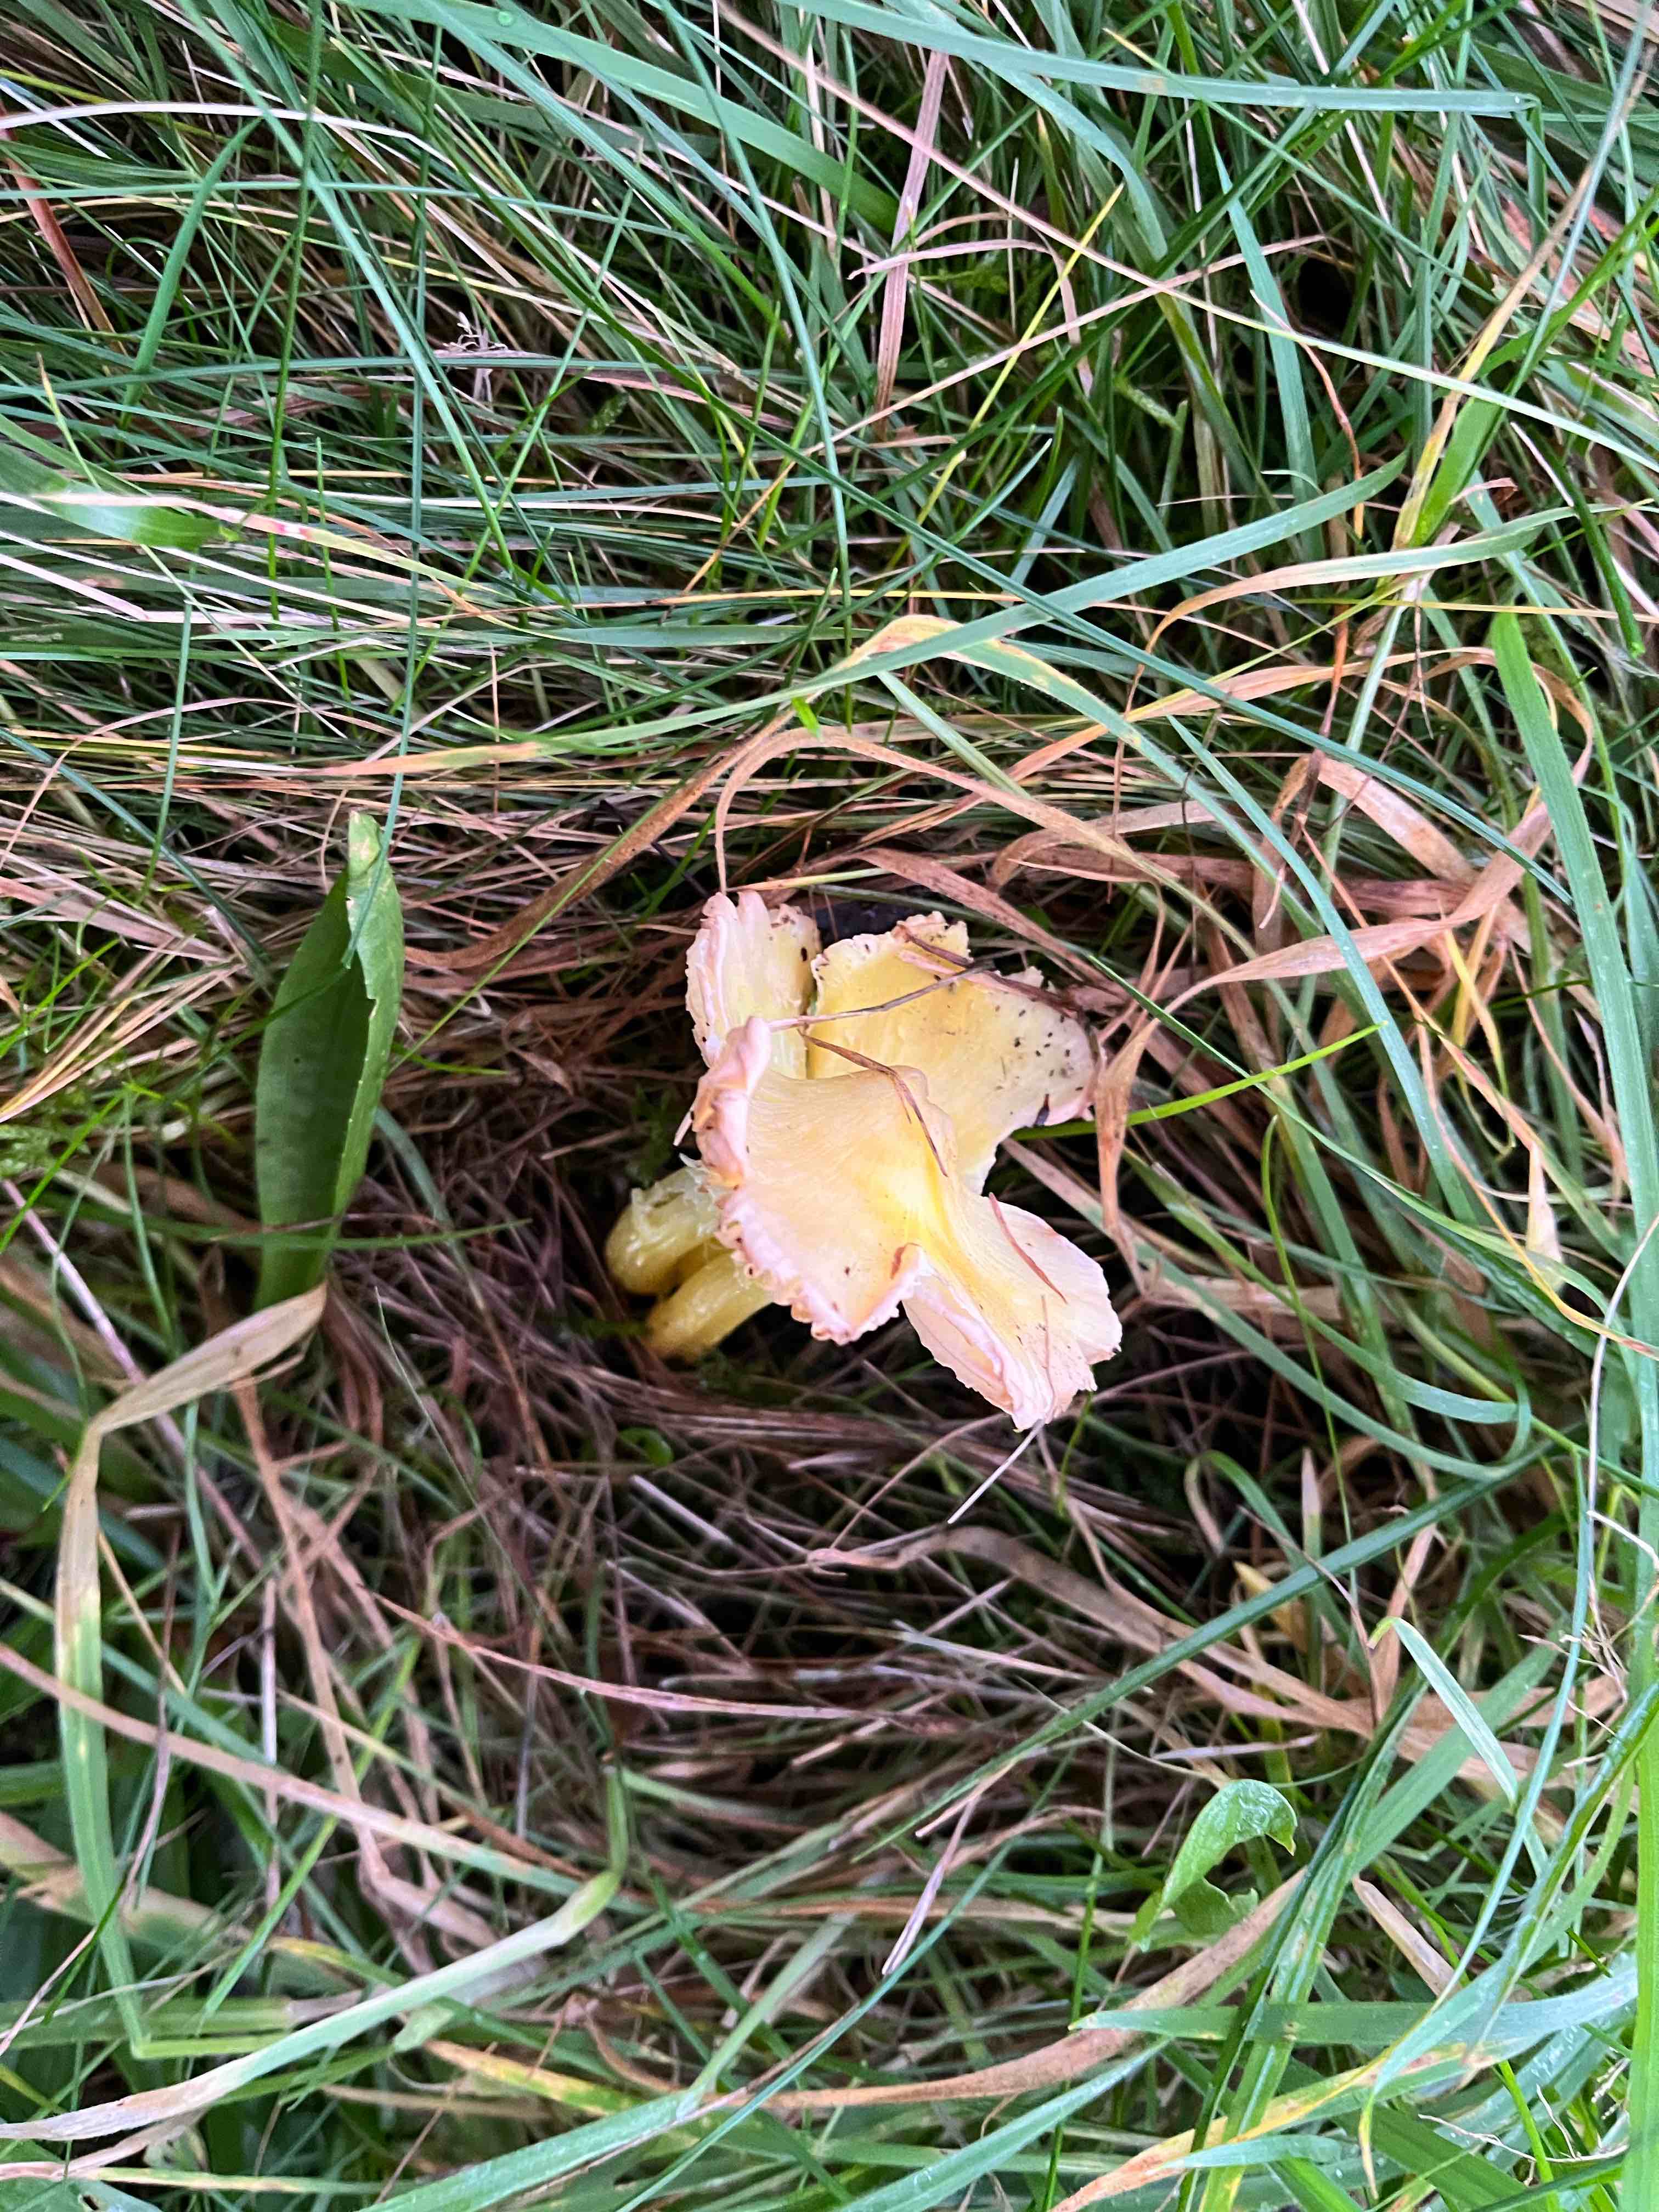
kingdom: Fungi
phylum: Basidiomycota
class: Agaricomycetes
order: Agaricales
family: Hygrophoraceae
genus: Hygrocybe
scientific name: Hygrocybe citrinovirens
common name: grøngul vokshat
